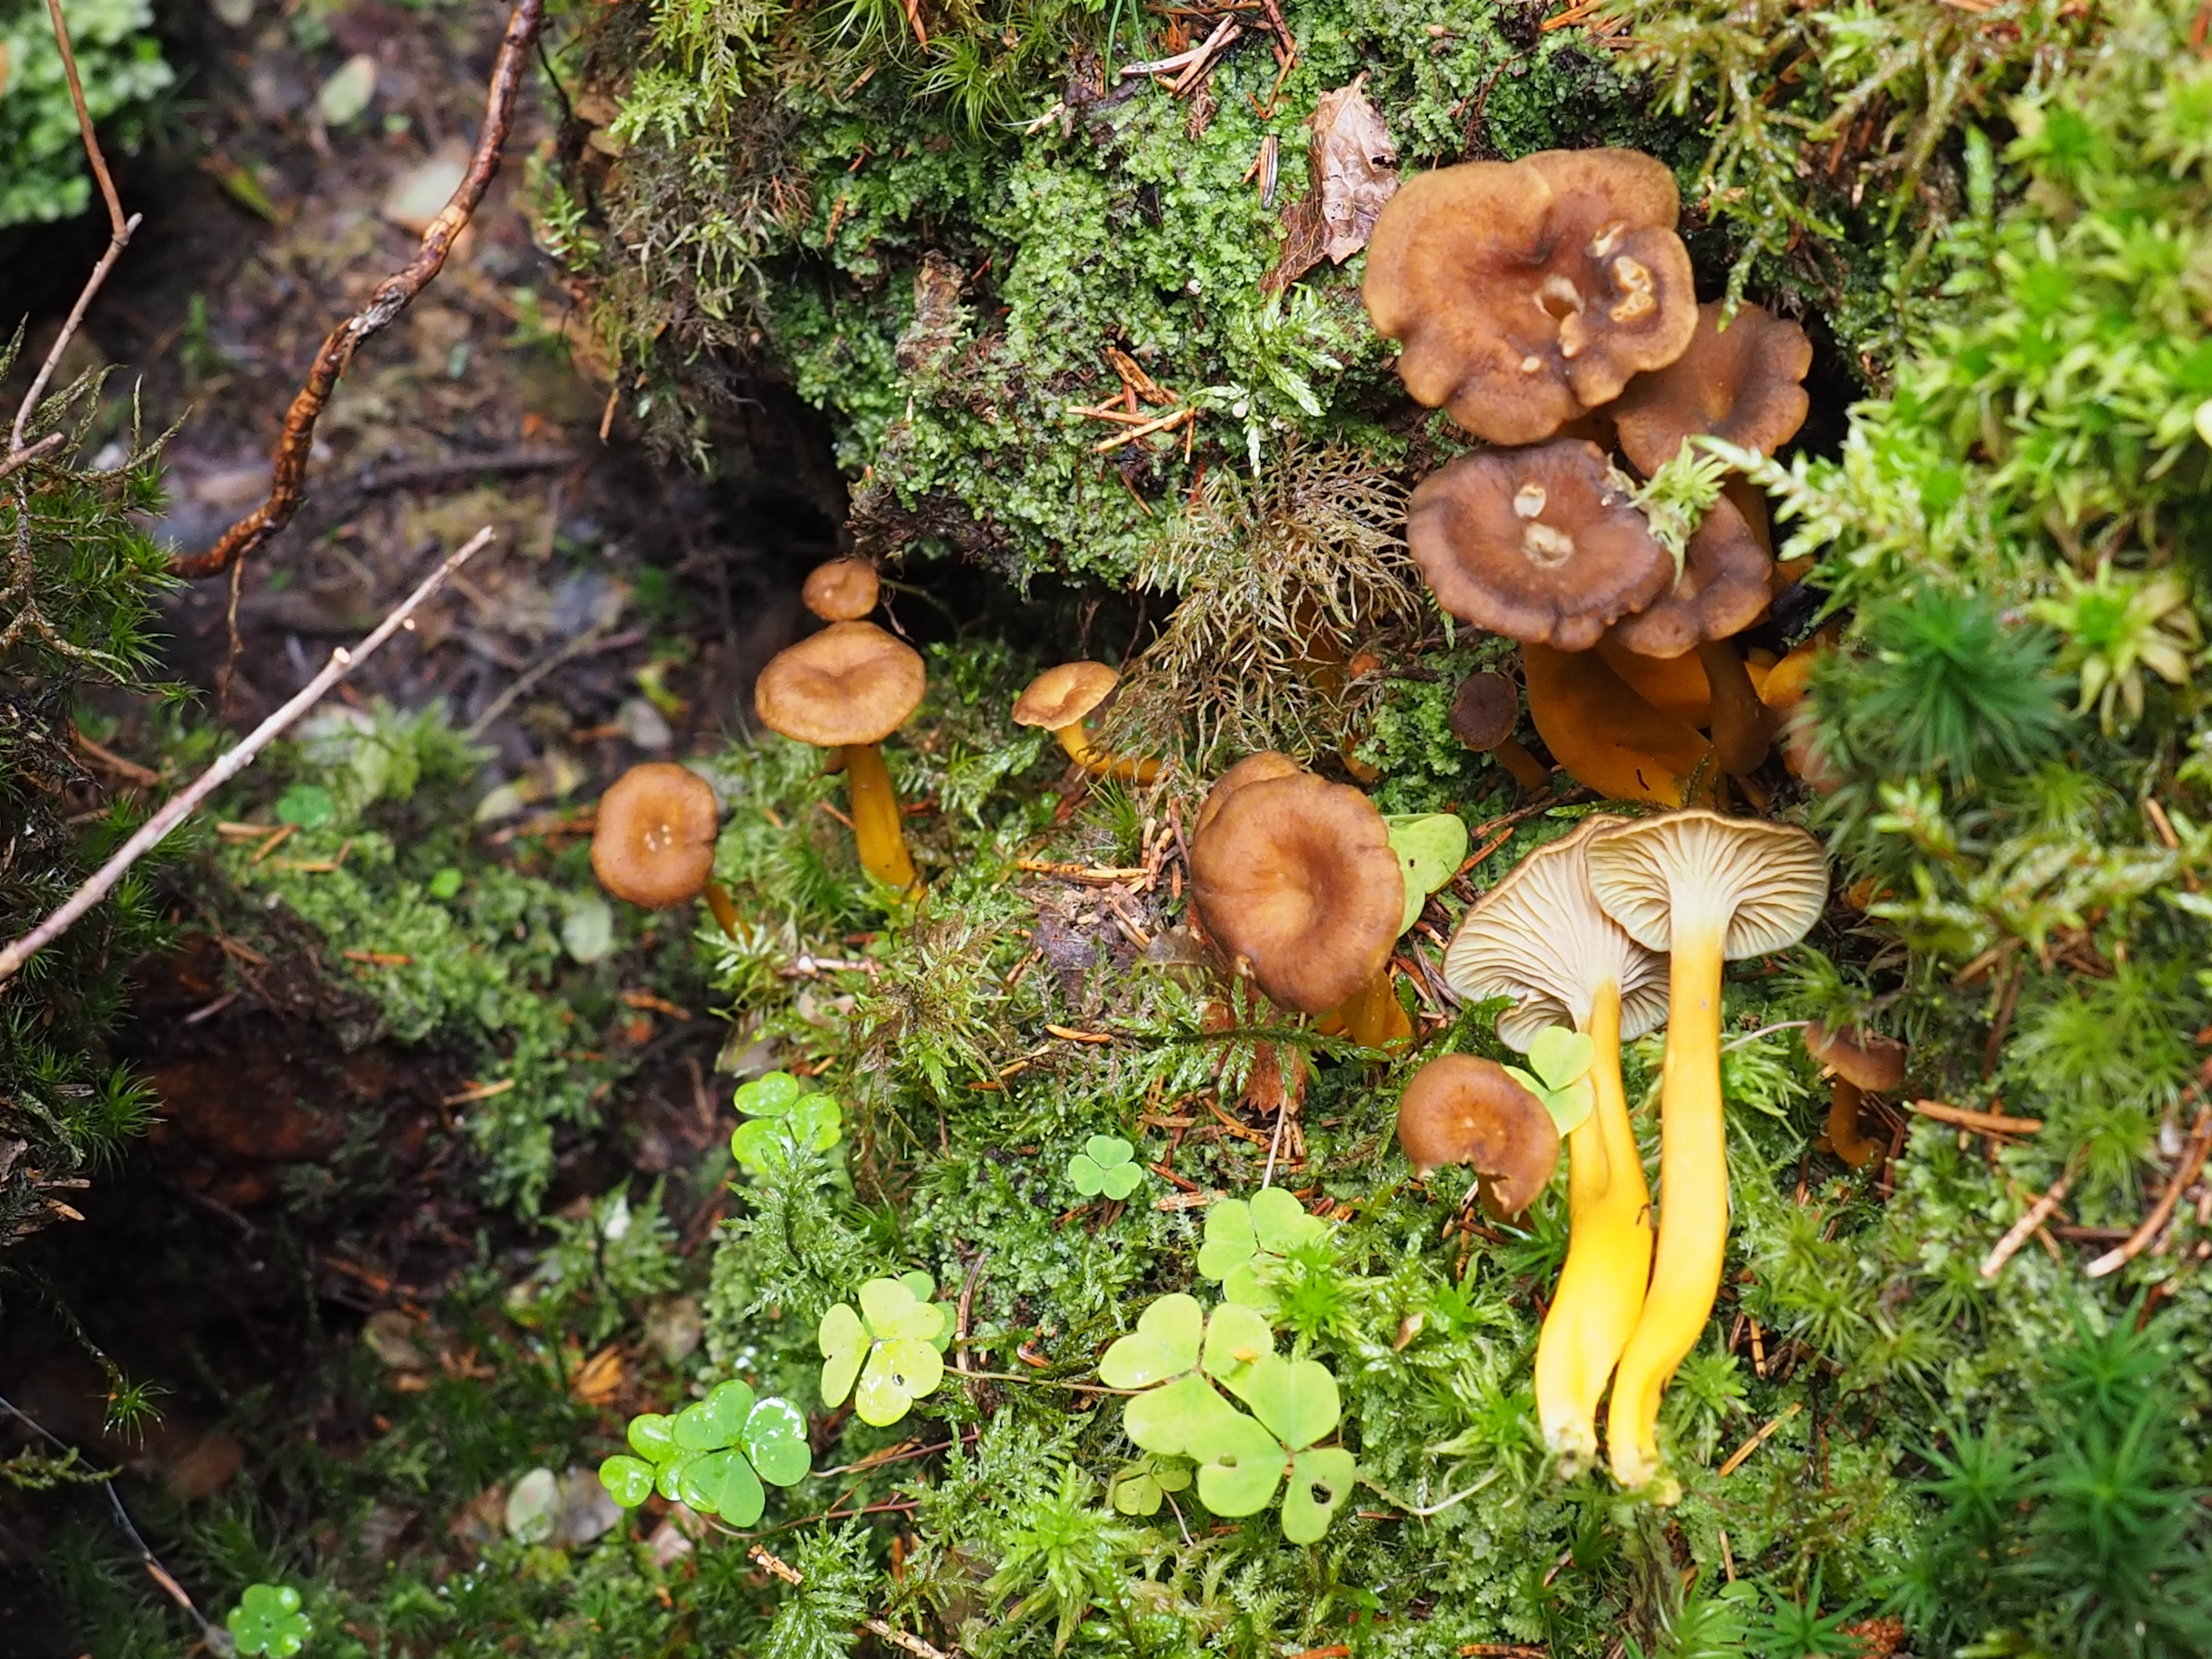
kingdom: Fungi
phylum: Basidiomycota
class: Agaricomycetes
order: Cantharellales
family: Hydnaceae
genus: Craterellus
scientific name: Craterellus tubaeformis
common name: Yellowfoot
